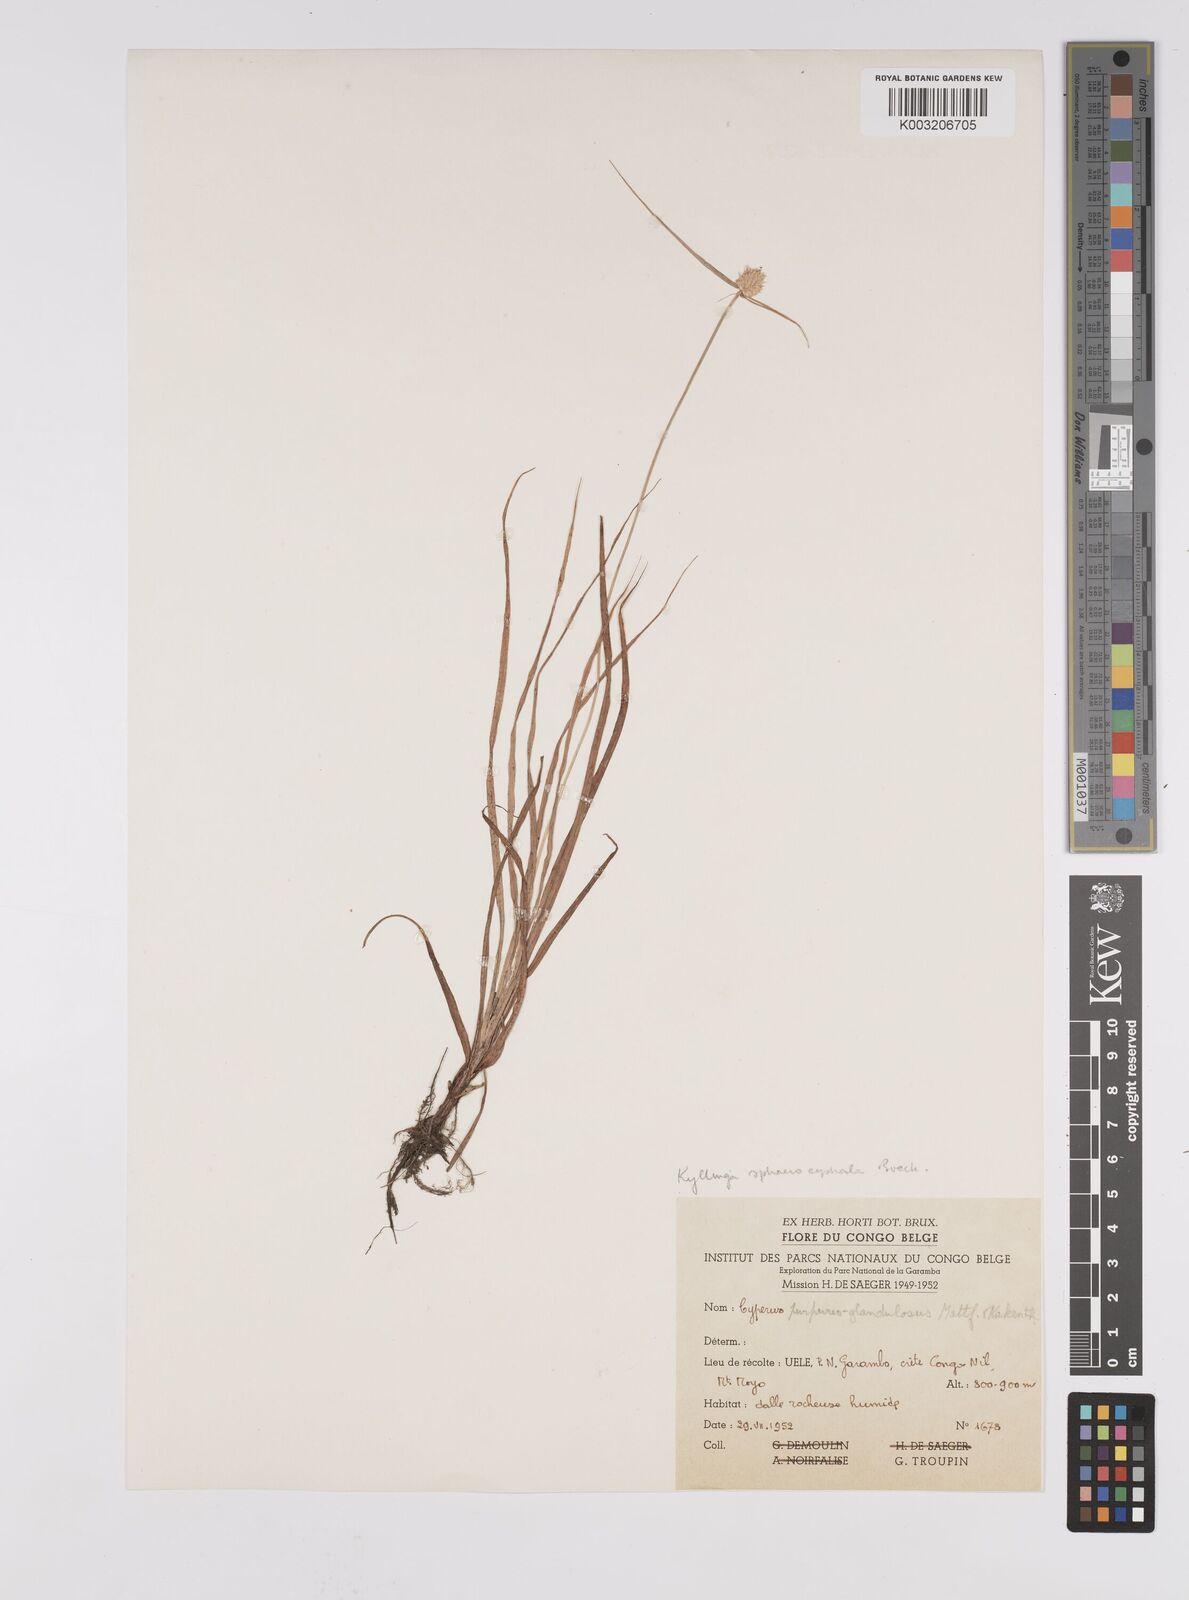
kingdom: Plantae
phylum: Tracheophyta
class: Liliopsida
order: Poales
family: Cyperaceae
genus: Cyperus
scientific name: Cyperus sphaerolepis
